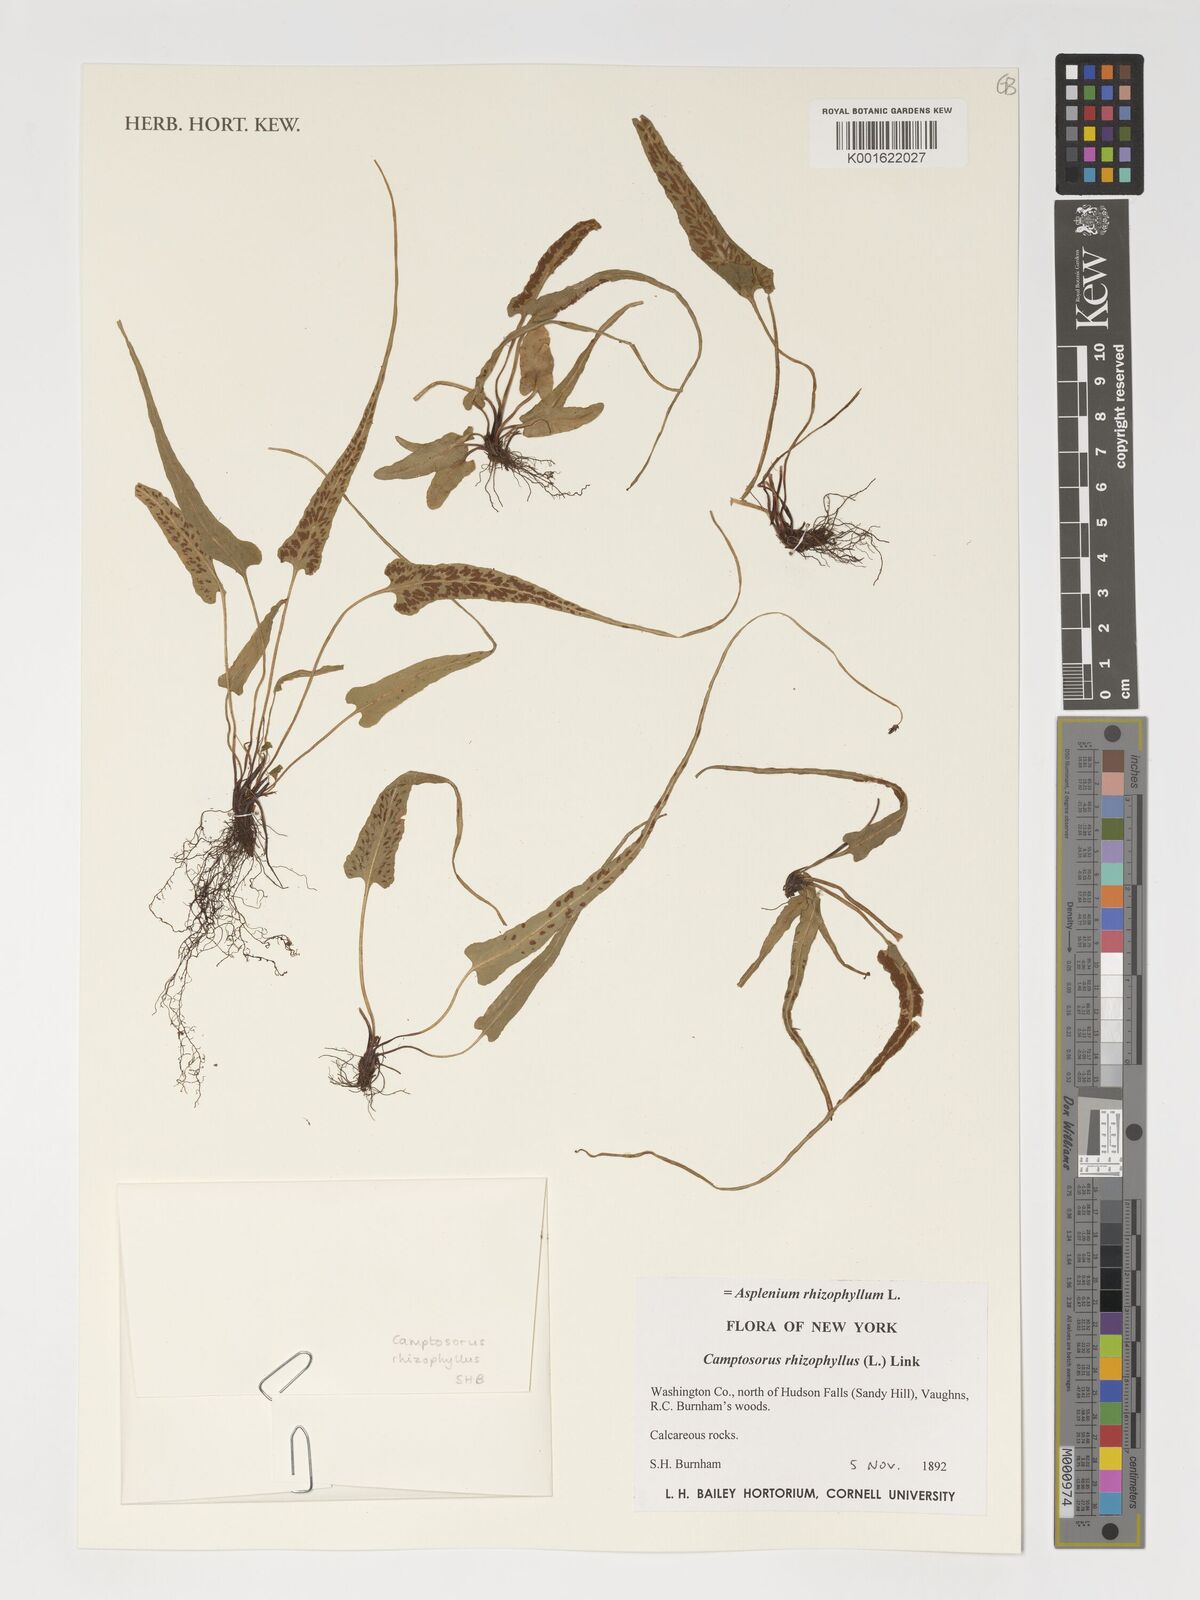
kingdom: Plantae
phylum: Tracheophyta
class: Polypodiopsida
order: Polypodiales
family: Aspleniaceae
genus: Asplenium
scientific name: Asplenium rhizophyllum
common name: Walking fern
